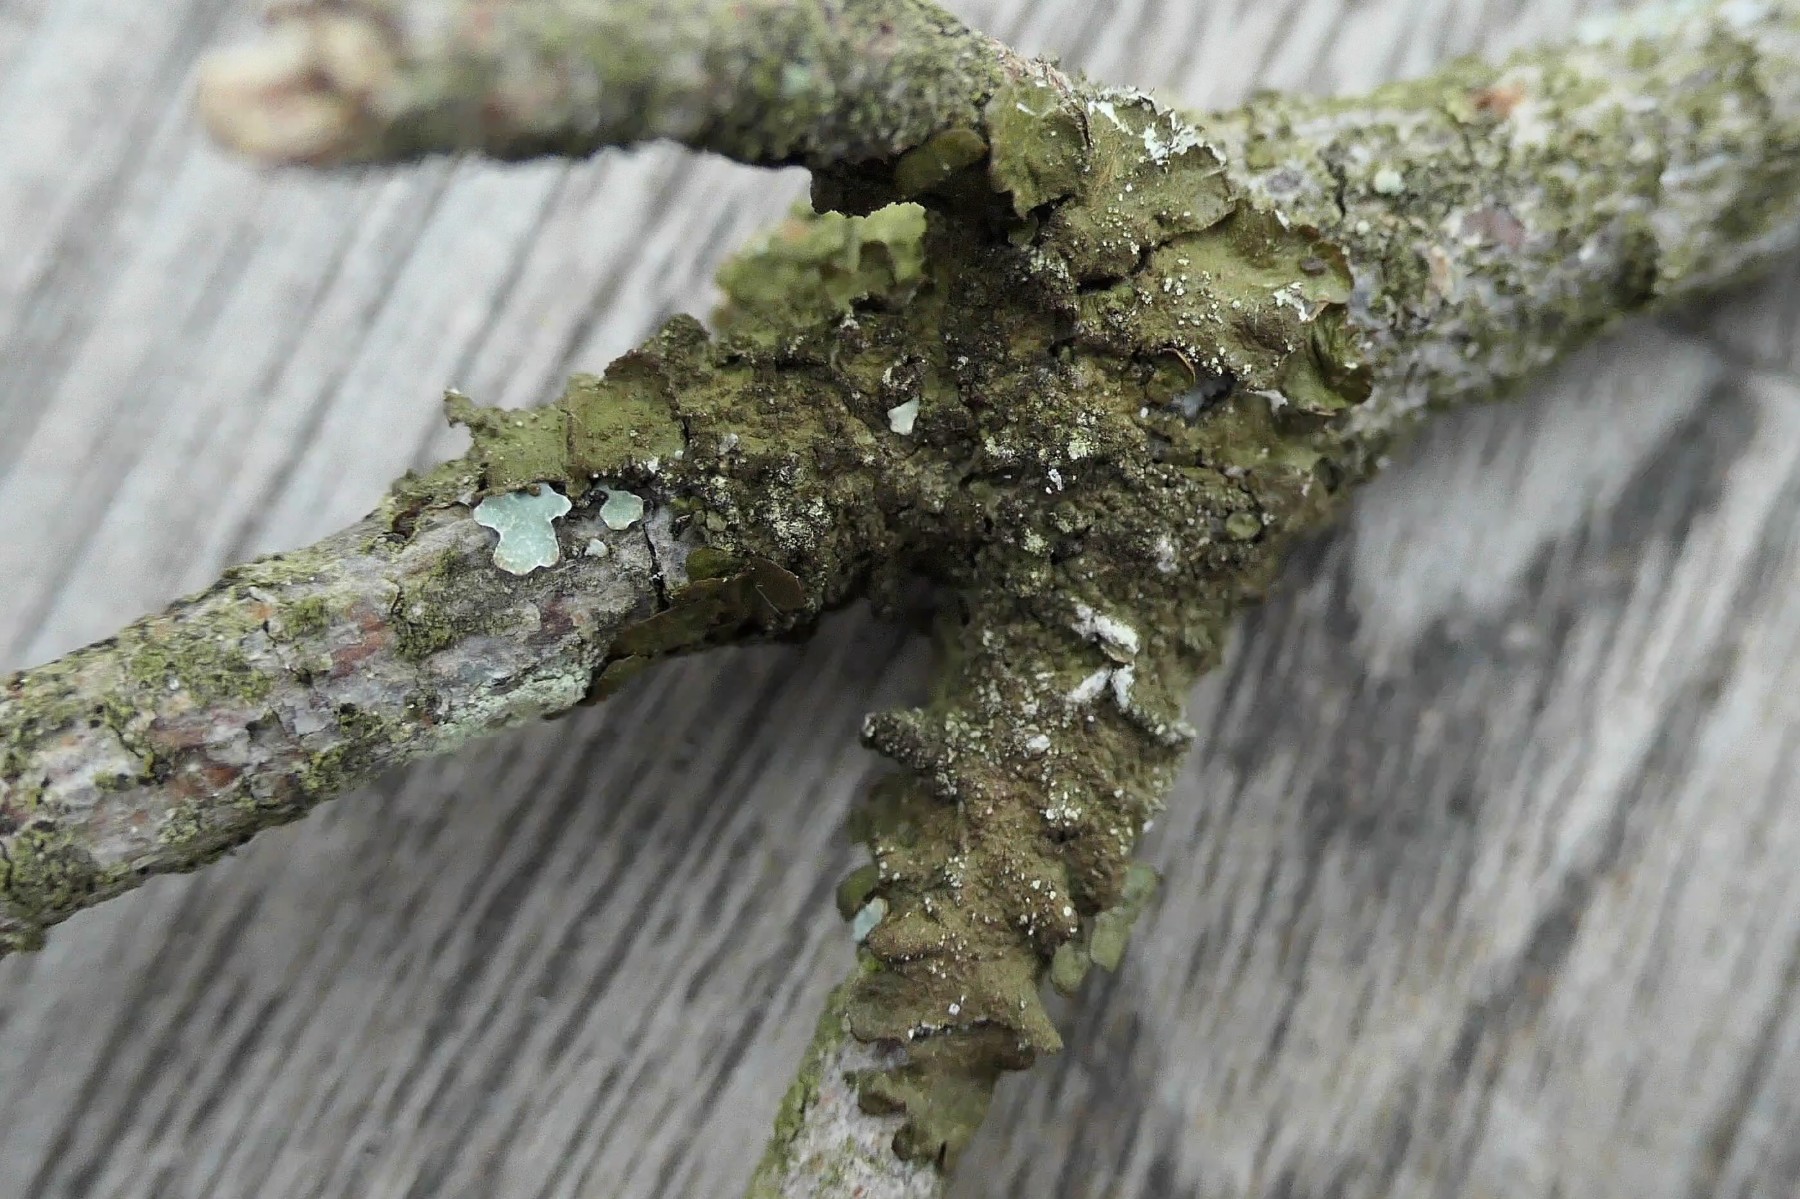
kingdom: Fungi
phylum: Ascomycota
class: Lecanoromycetes
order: Lecanorales
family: Parmeliaceae
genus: Melanelixia
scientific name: Melanelixia subaurifera
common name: guldpudret skållav
